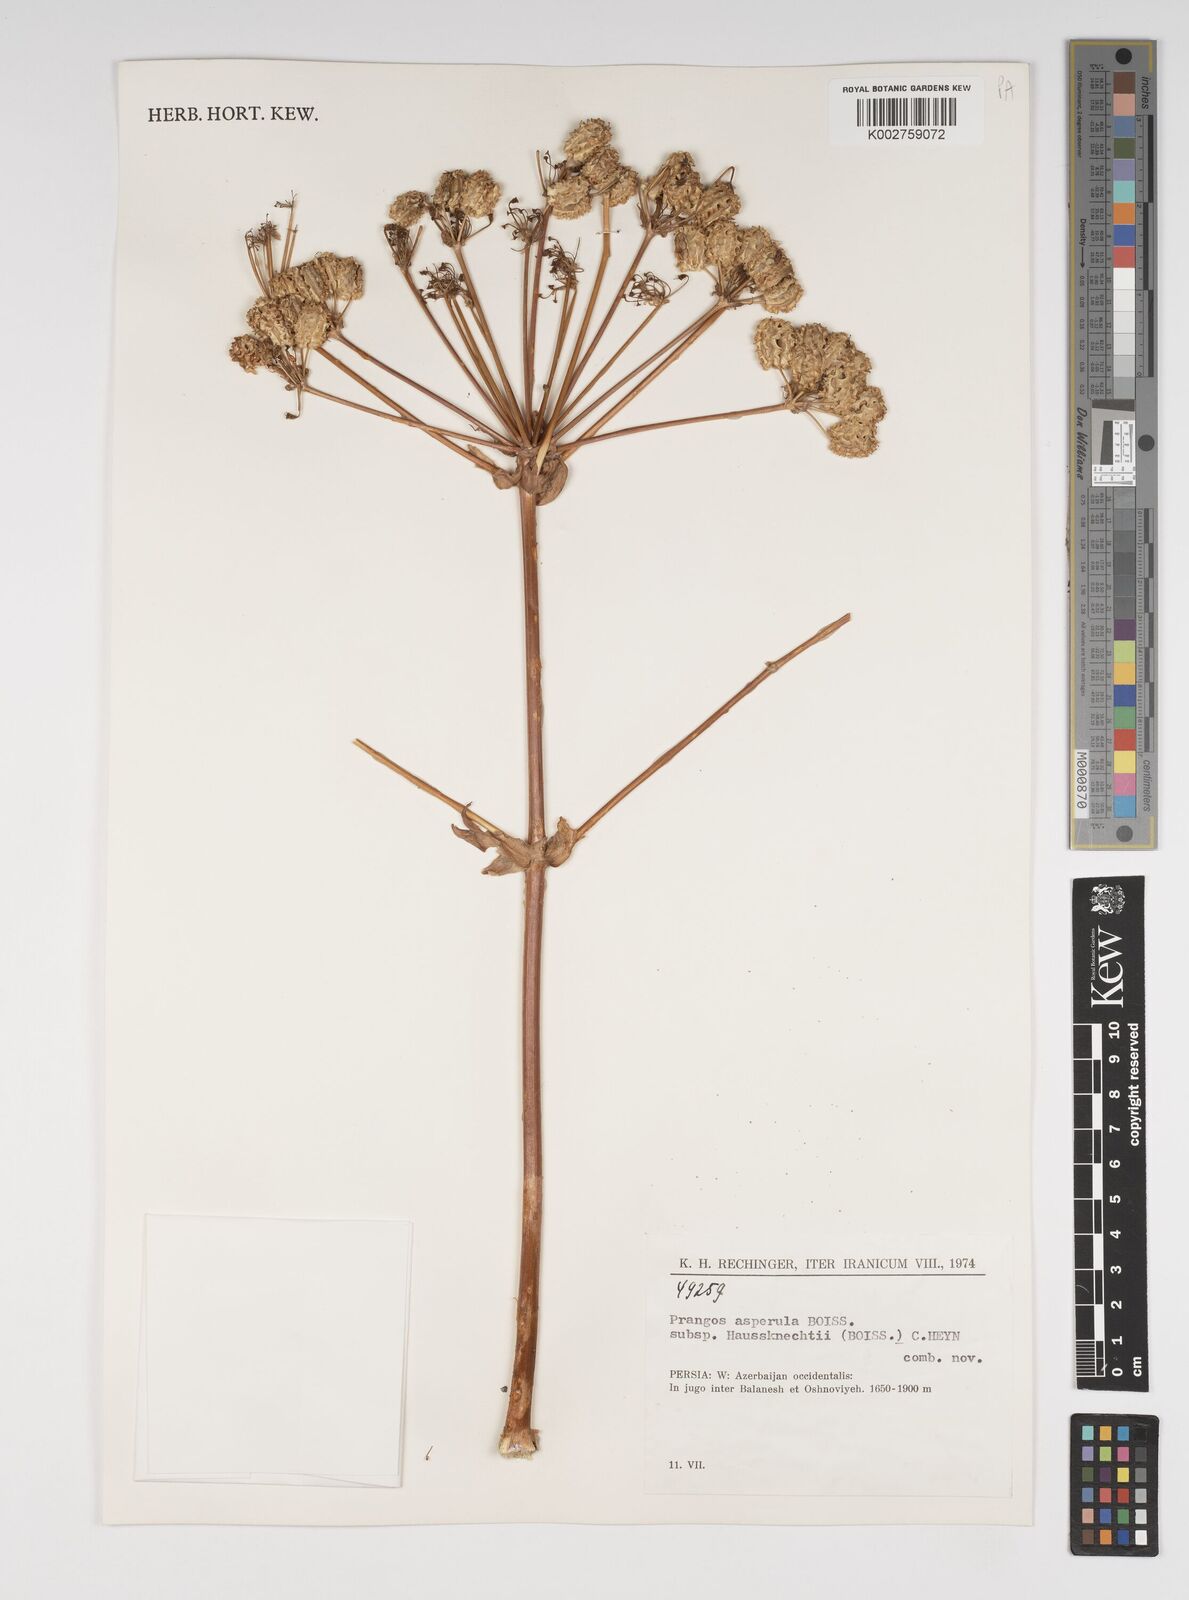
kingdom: Plantae
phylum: Tracheophyta
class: Magnoliopsida
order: Apiales
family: Apiaceae
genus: Prangos
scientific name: Prangos asperula
